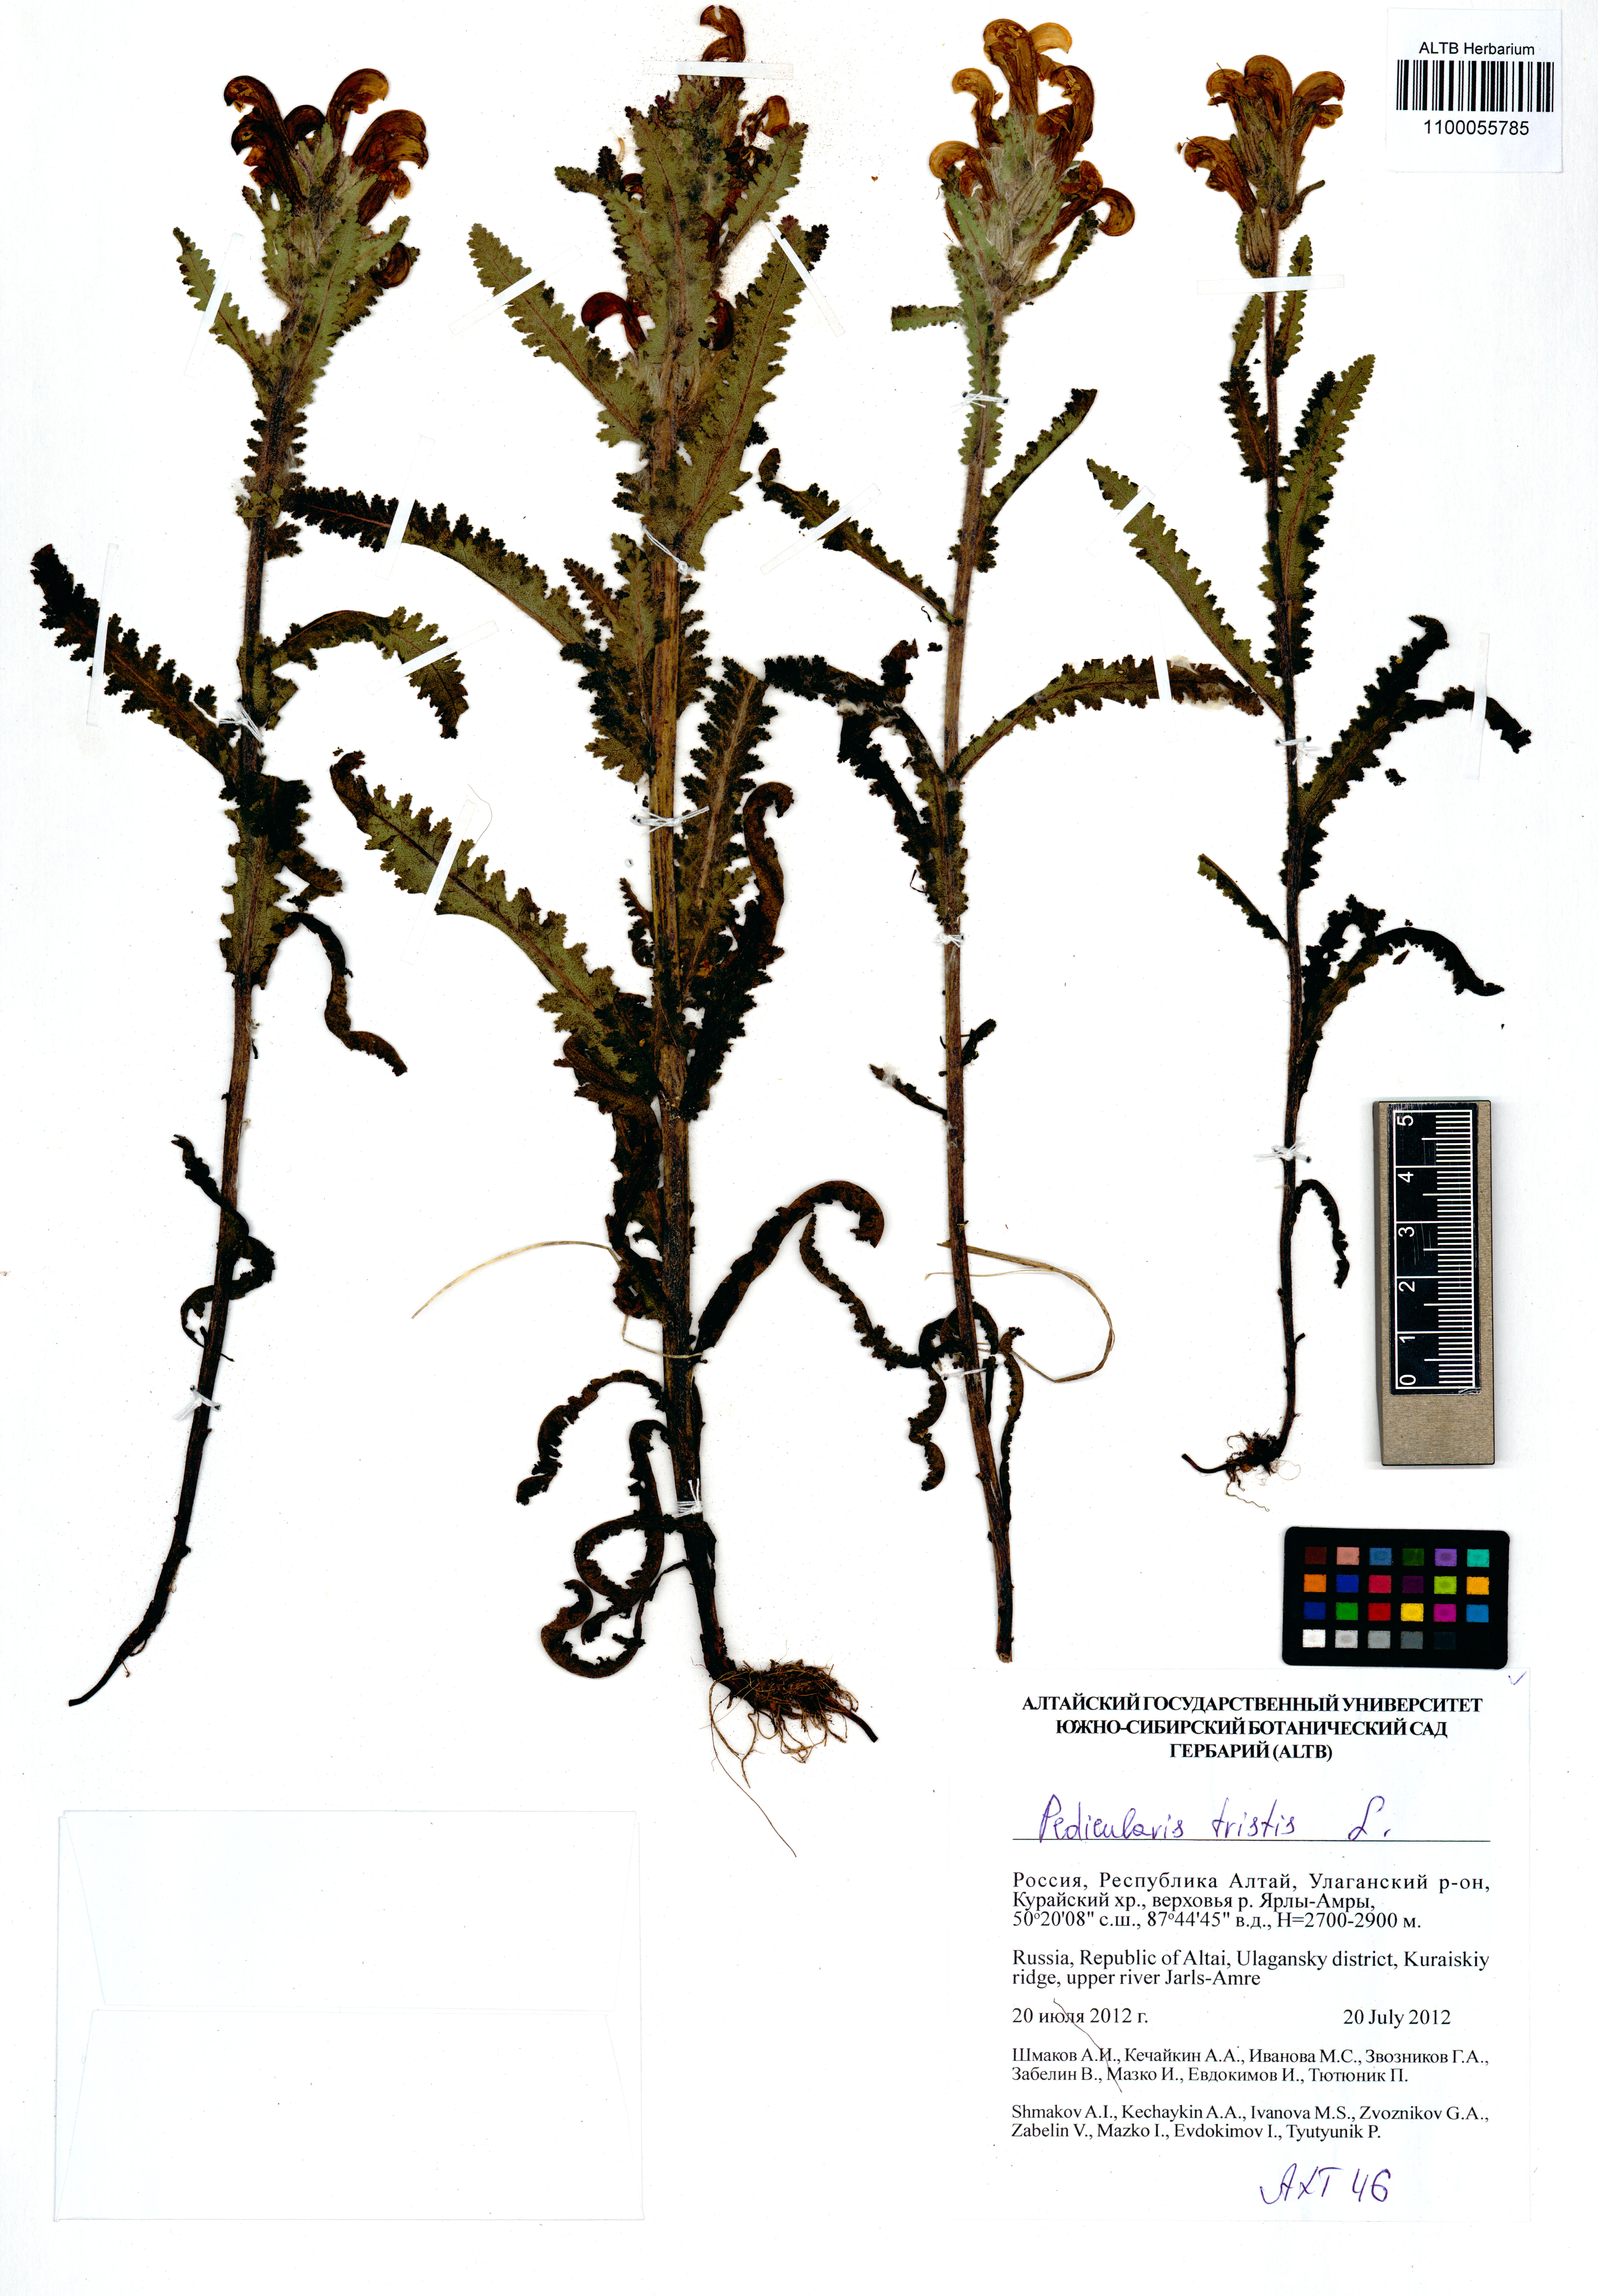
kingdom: Plantae
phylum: Tracheophyta
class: Magnoliopsida
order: Lamiales
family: Orobanchaceae
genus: Pedicularis
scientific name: Pedicularis tristis
